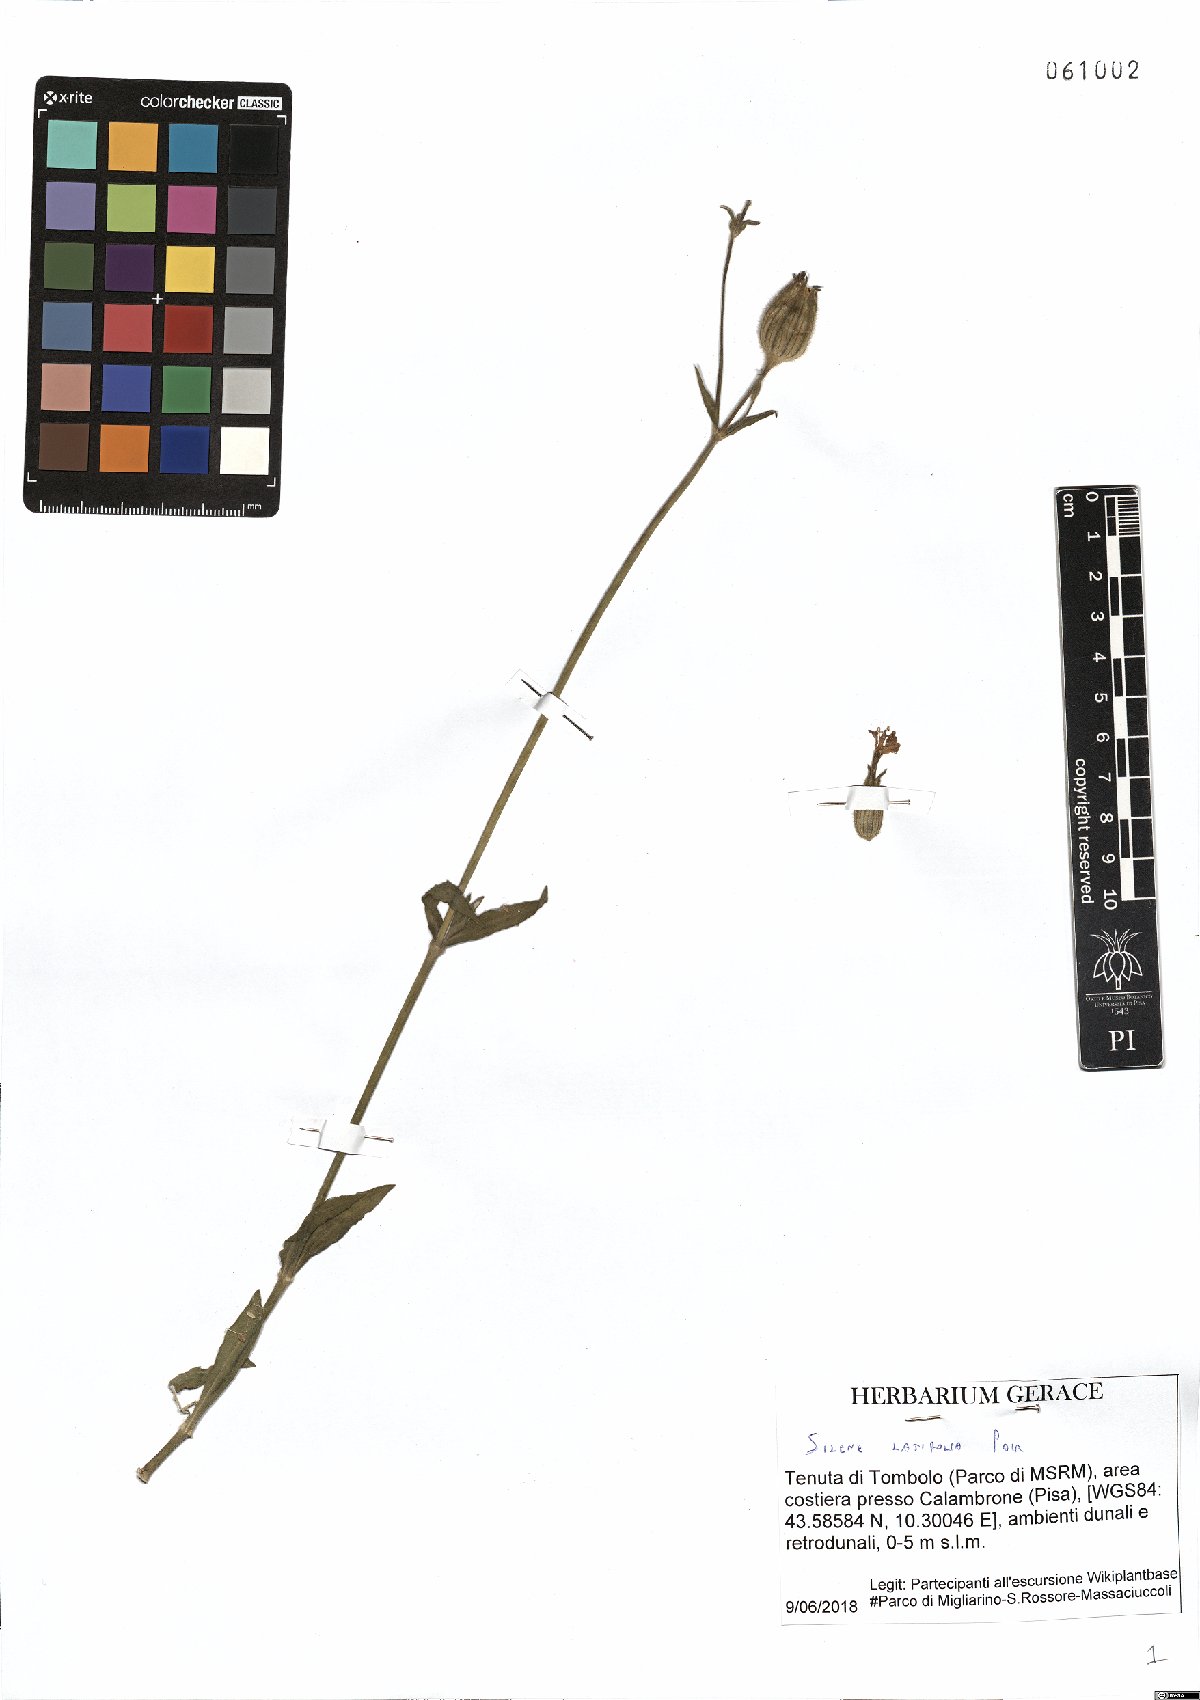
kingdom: Plantae
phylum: Tracheophyta
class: Magnoliopsida
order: Caryophyllales
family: Caryophyllaceae
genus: Silene
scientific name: Silene latifolia
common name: White campion
